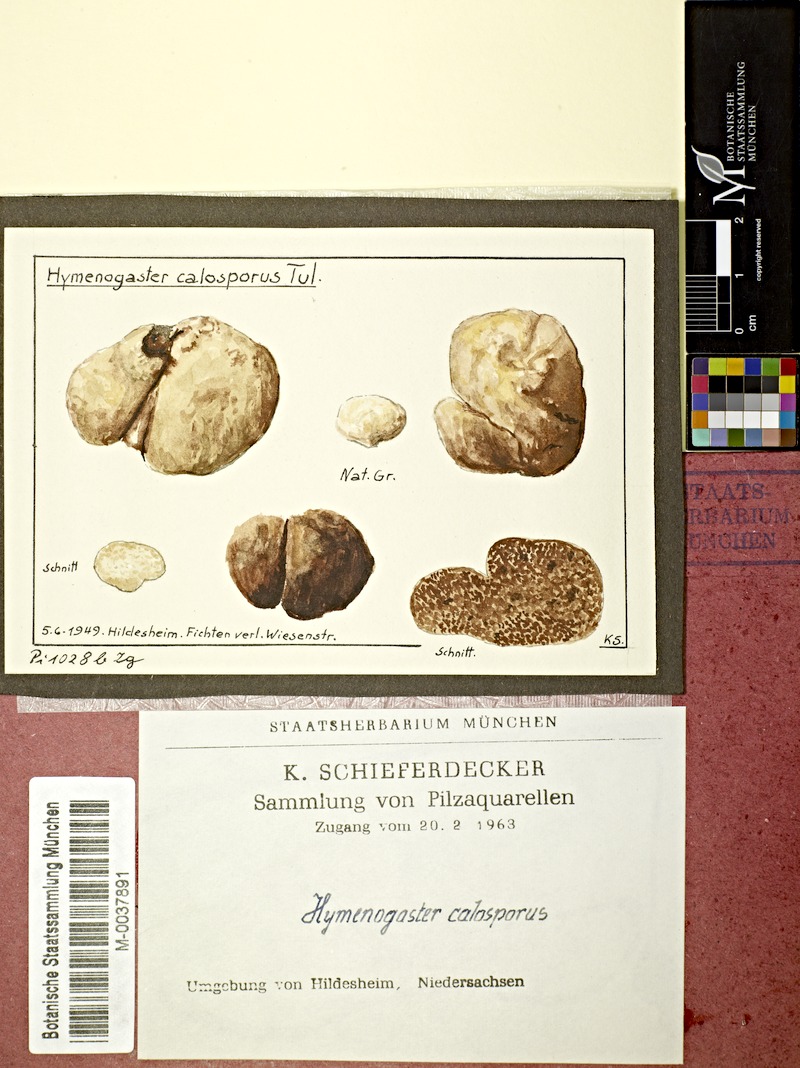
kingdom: Fungi
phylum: Basidiomycota
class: Agaricomycetes
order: Agaricales
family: Hymenogastraceae
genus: Hymenogaster
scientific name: Hymenogaster calosporus
